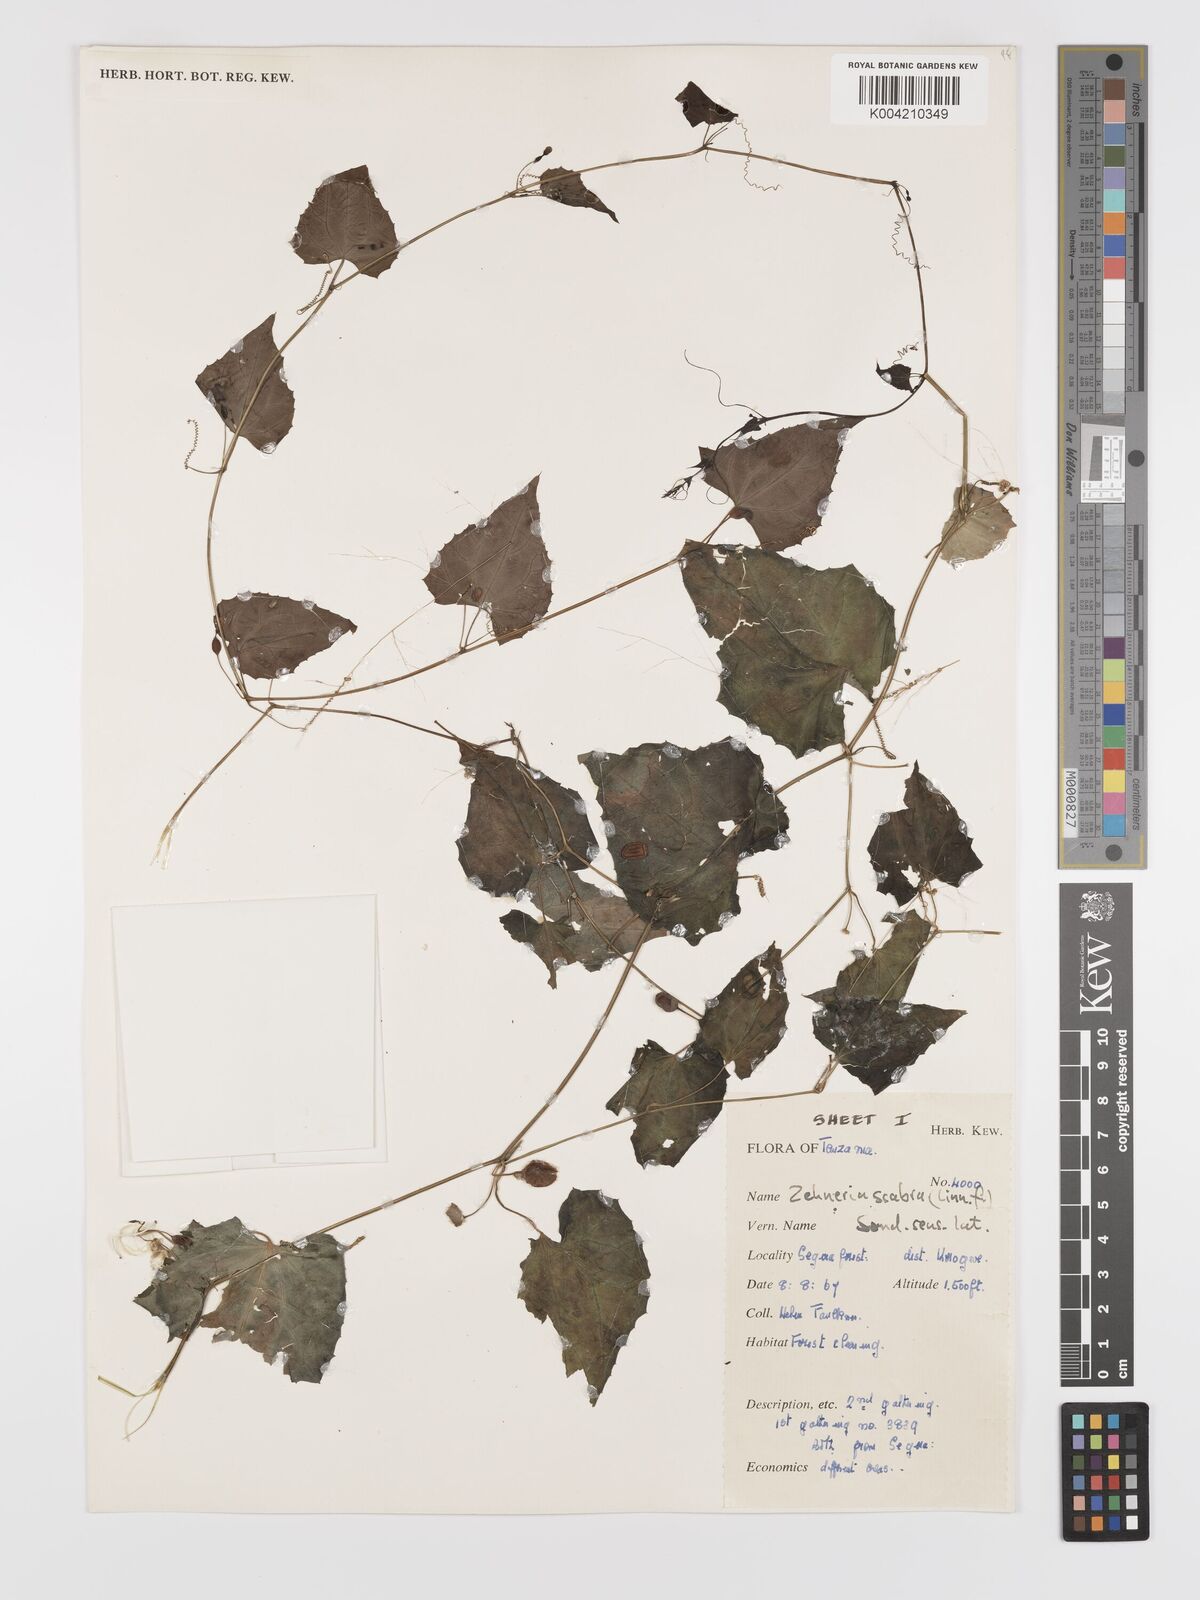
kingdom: Plantae
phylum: Tracheophyta
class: Magnoliopsida
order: Cucurbitales
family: Cucurbitaceae
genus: Zehneria
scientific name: Zehneria emirnensis
